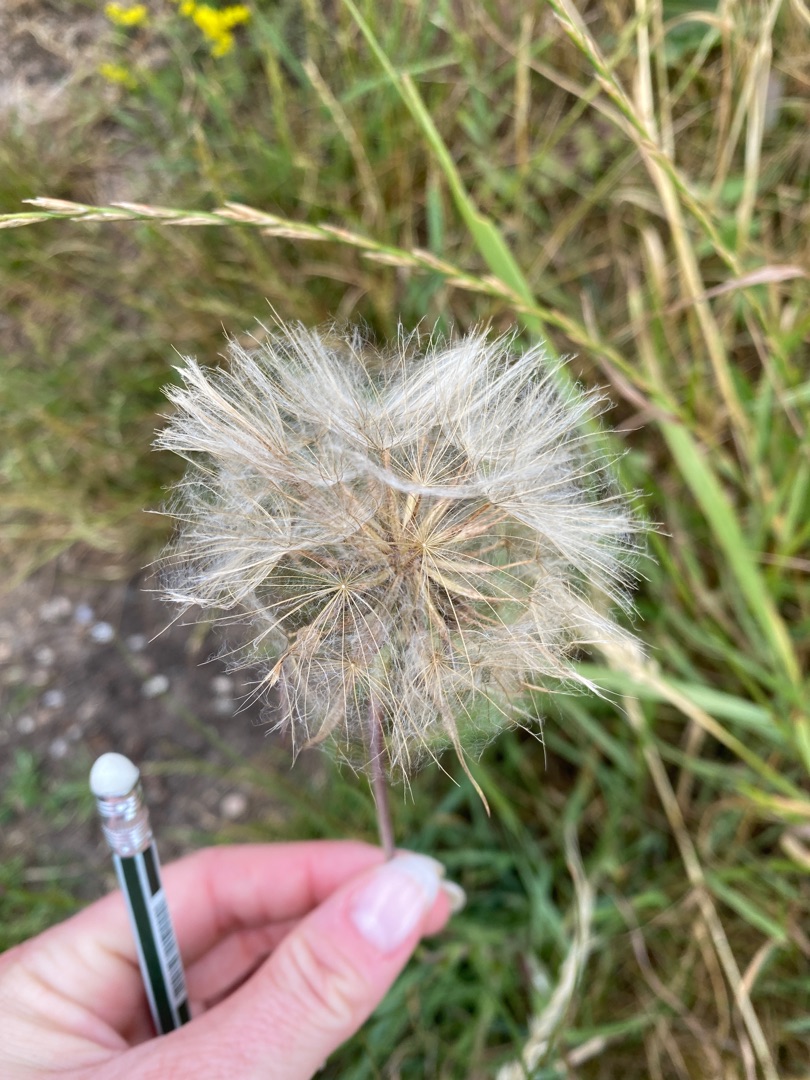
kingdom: Plantae
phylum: Tracheophyta
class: Magnoliopsida
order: Asterales
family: Asteraceae
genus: Tragopogon
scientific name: Tragopogon pratensis
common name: Gedeskæg
